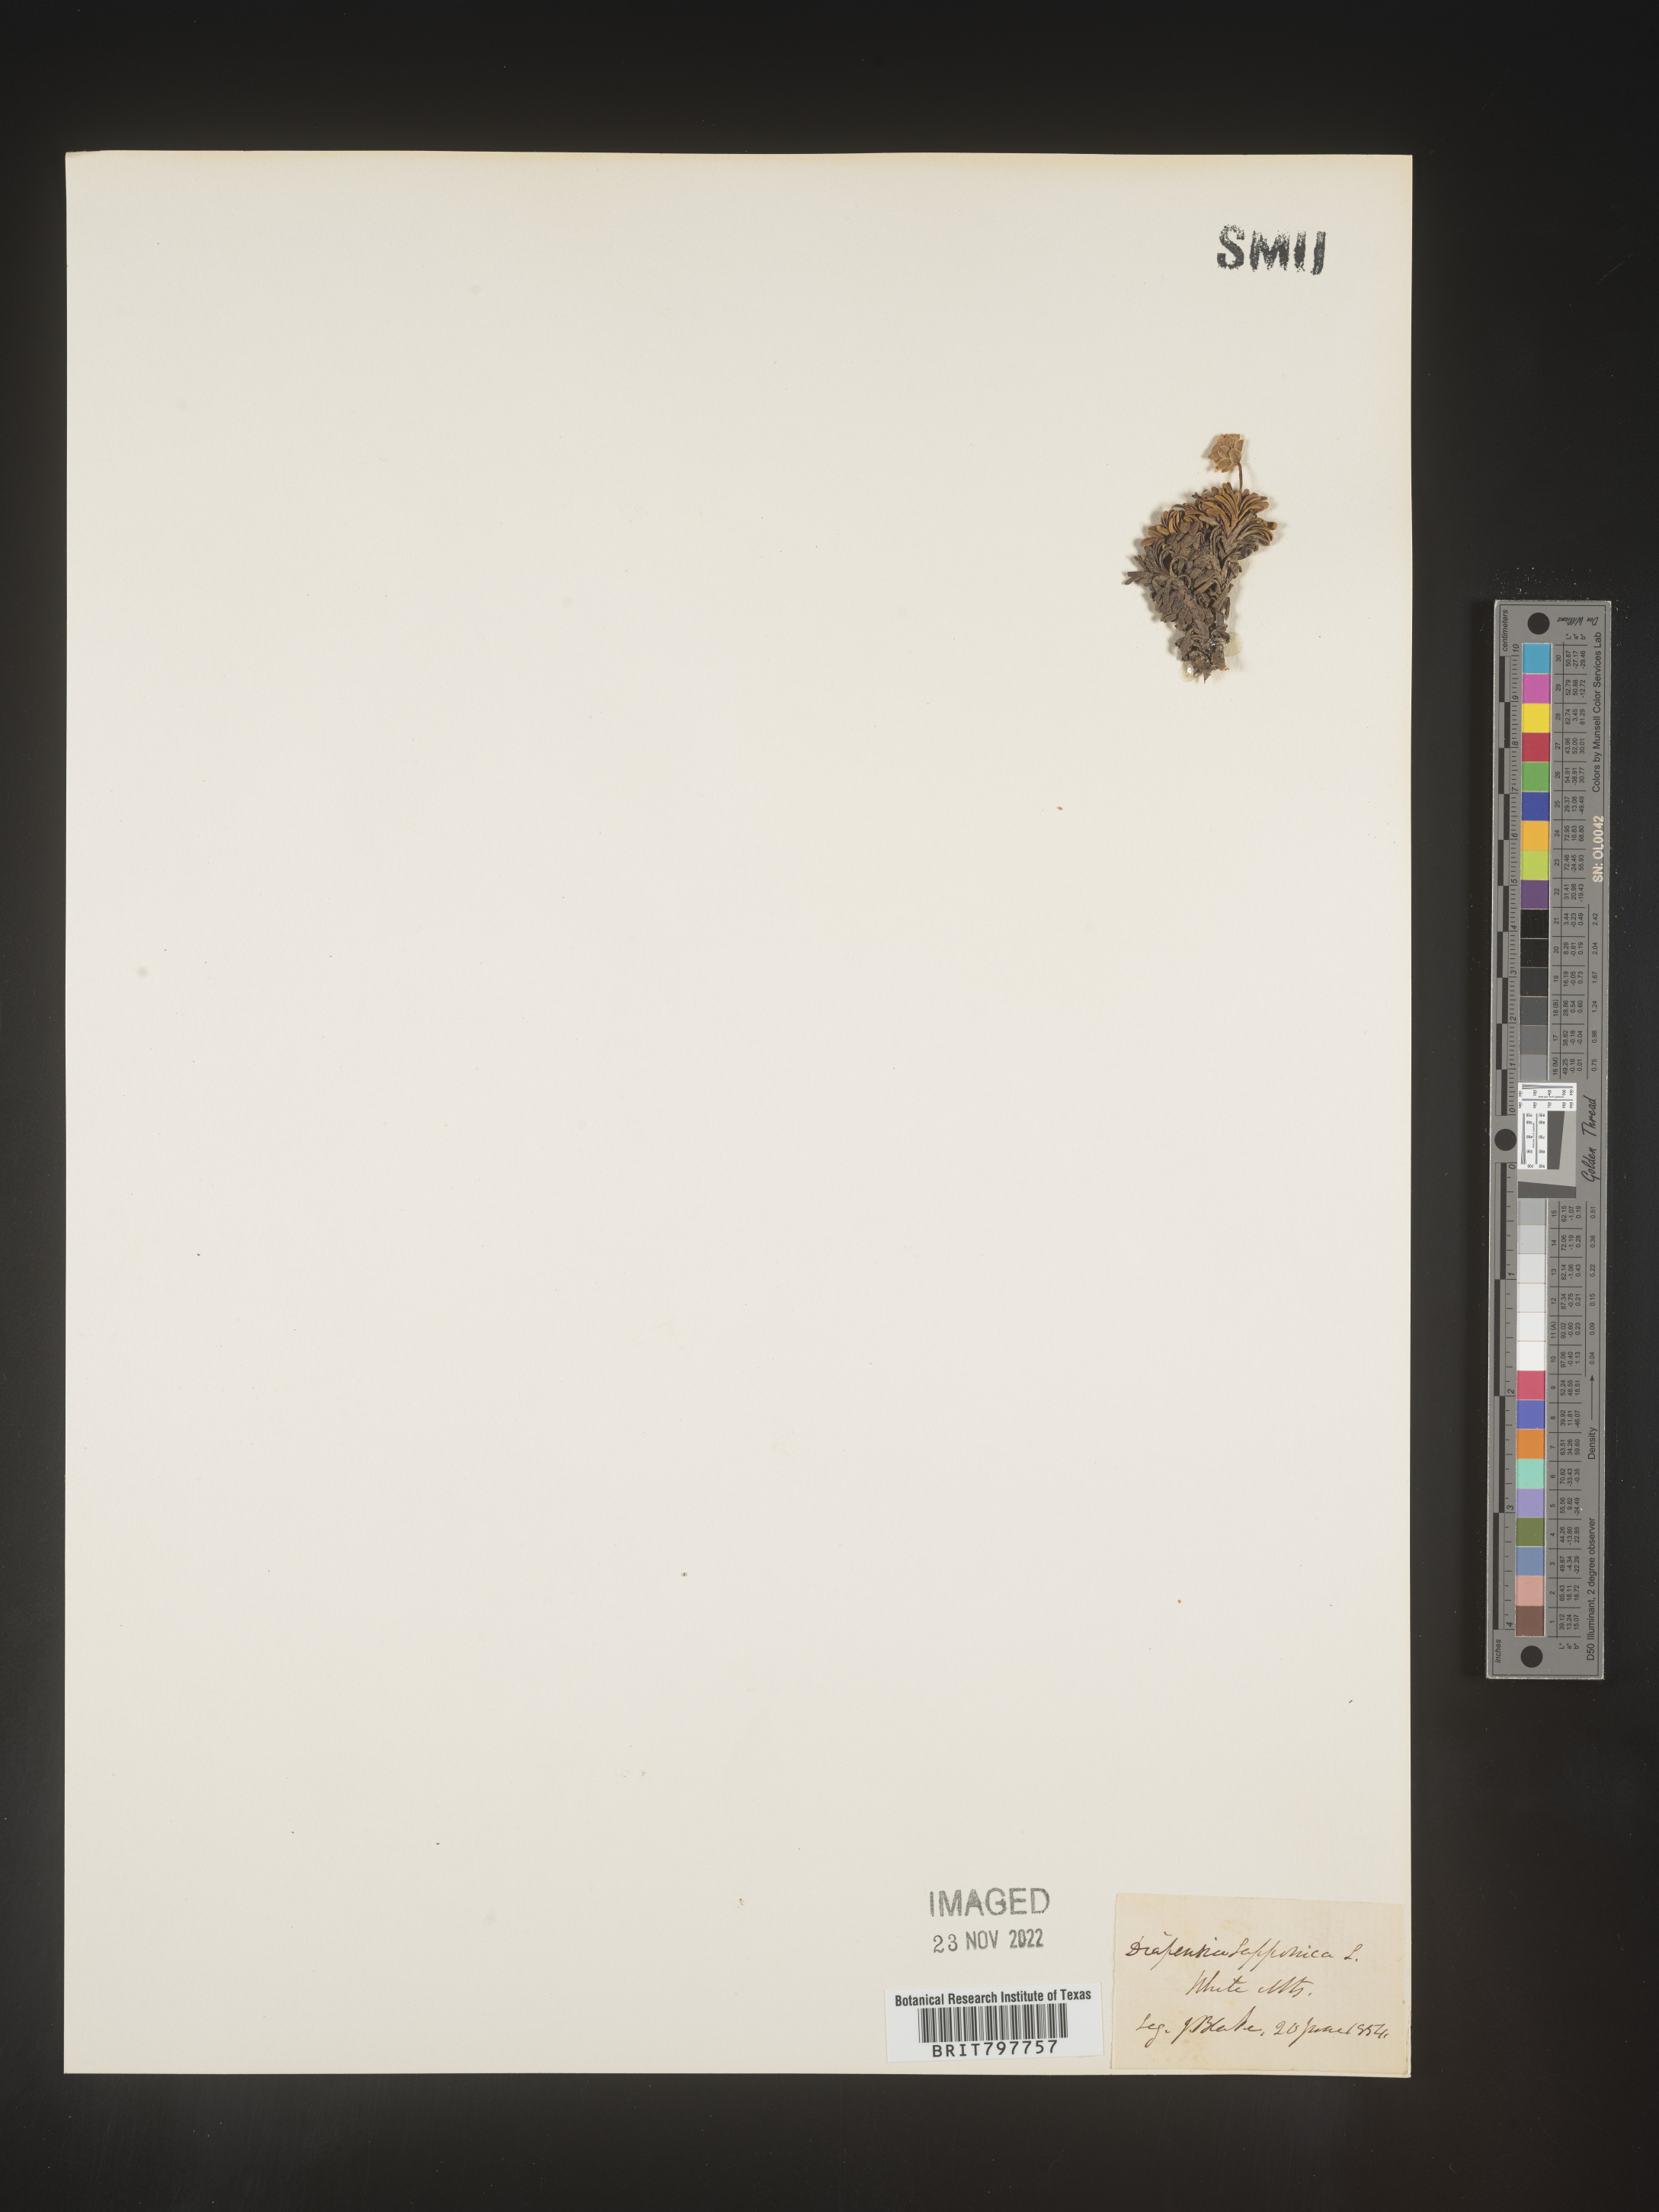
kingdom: Plantae
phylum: Tracheophyta
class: Magnoliopsida
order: Ericales
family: Diapensiaceae
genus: Diapensia
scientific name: Diapensia
